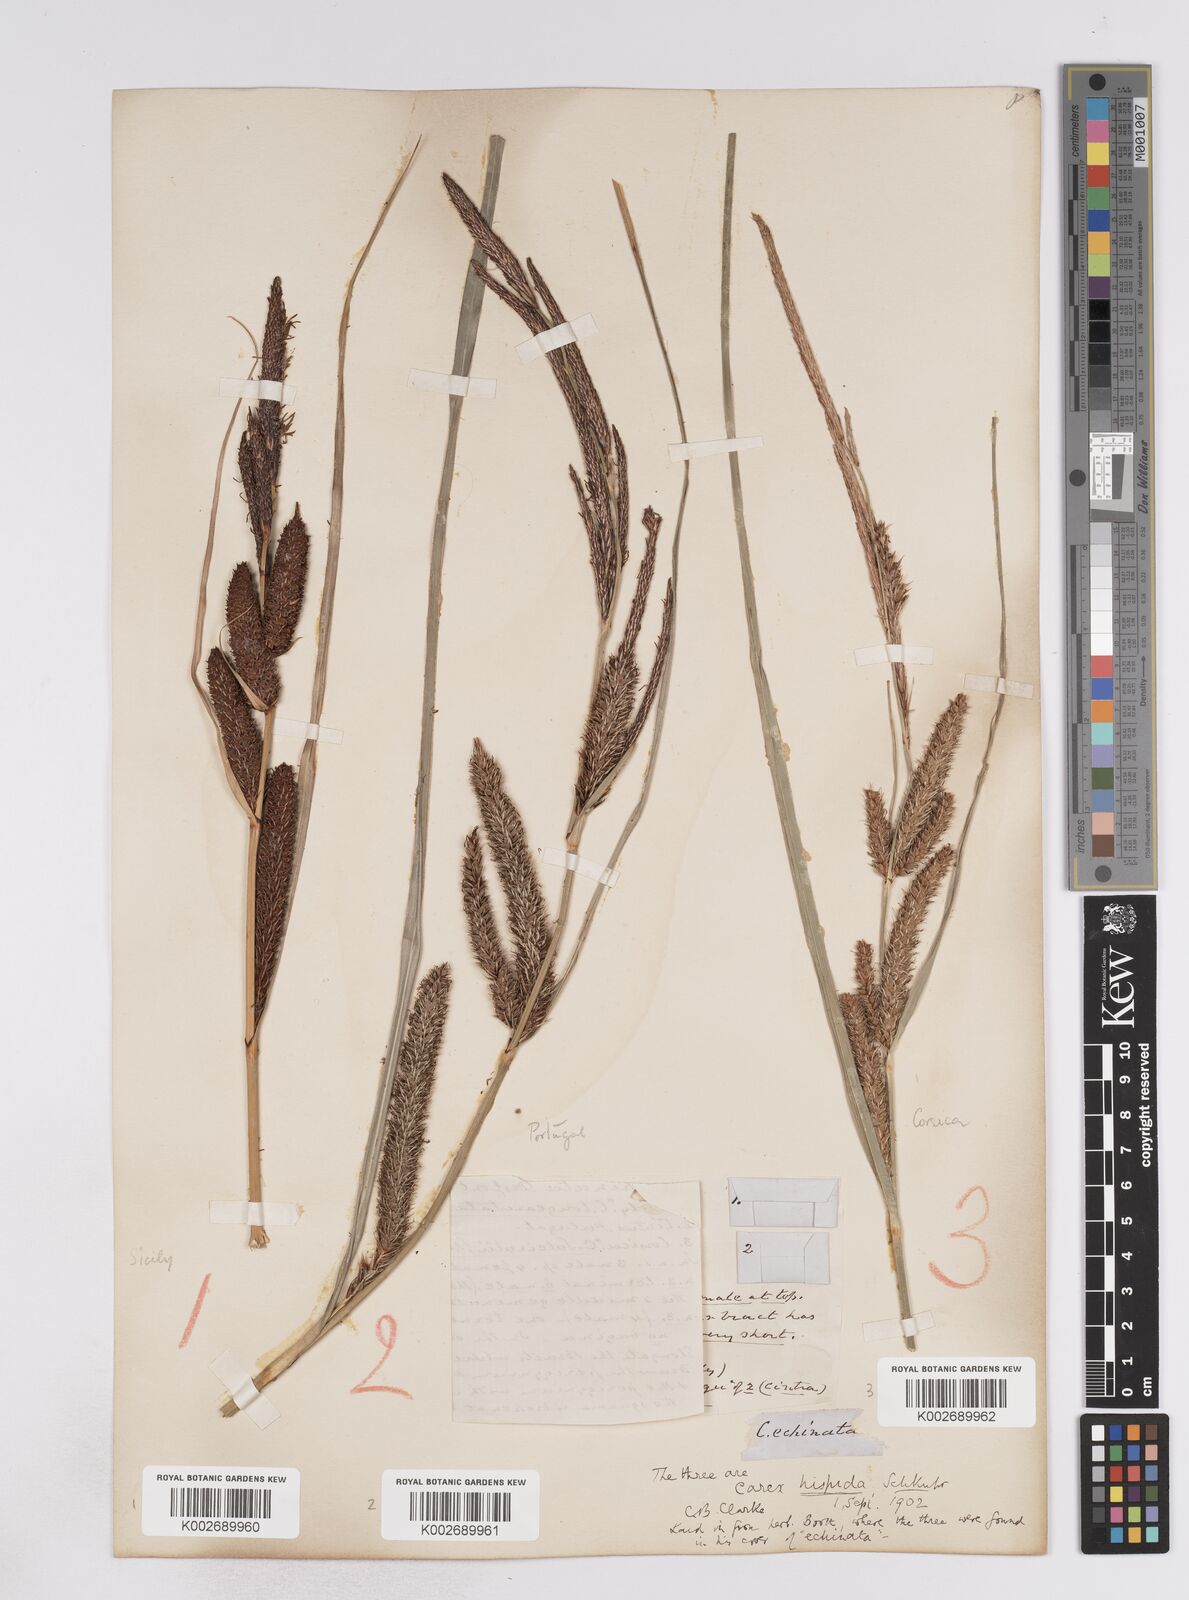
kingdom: Plantae
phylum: Tracheophyta
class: Liliopsida
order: Poales
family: Cyperaceae
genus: Carex
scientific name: Carex hispida
